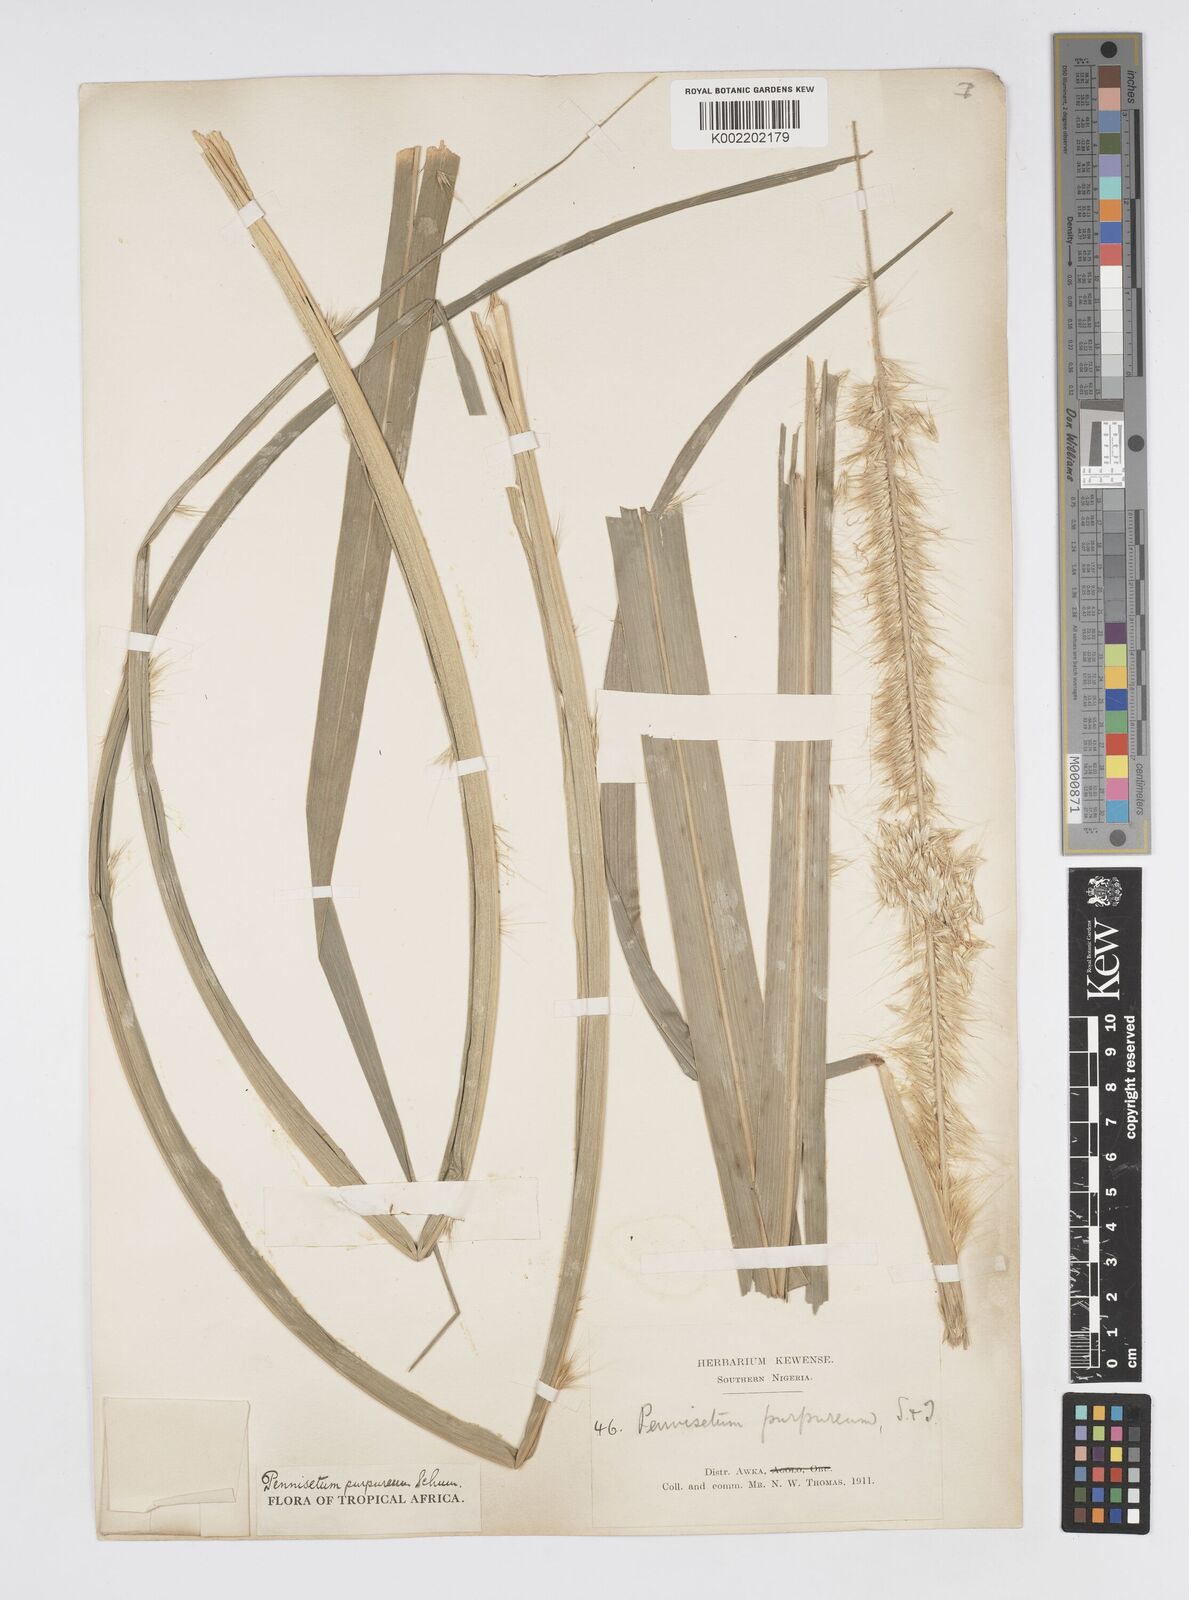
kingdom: Plantae
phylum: Tracheophyta
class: Liliopsida
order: Poales
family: Poaceae
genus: Cenchrus
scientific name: Cenchrus purpureus
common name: Elephant grass
